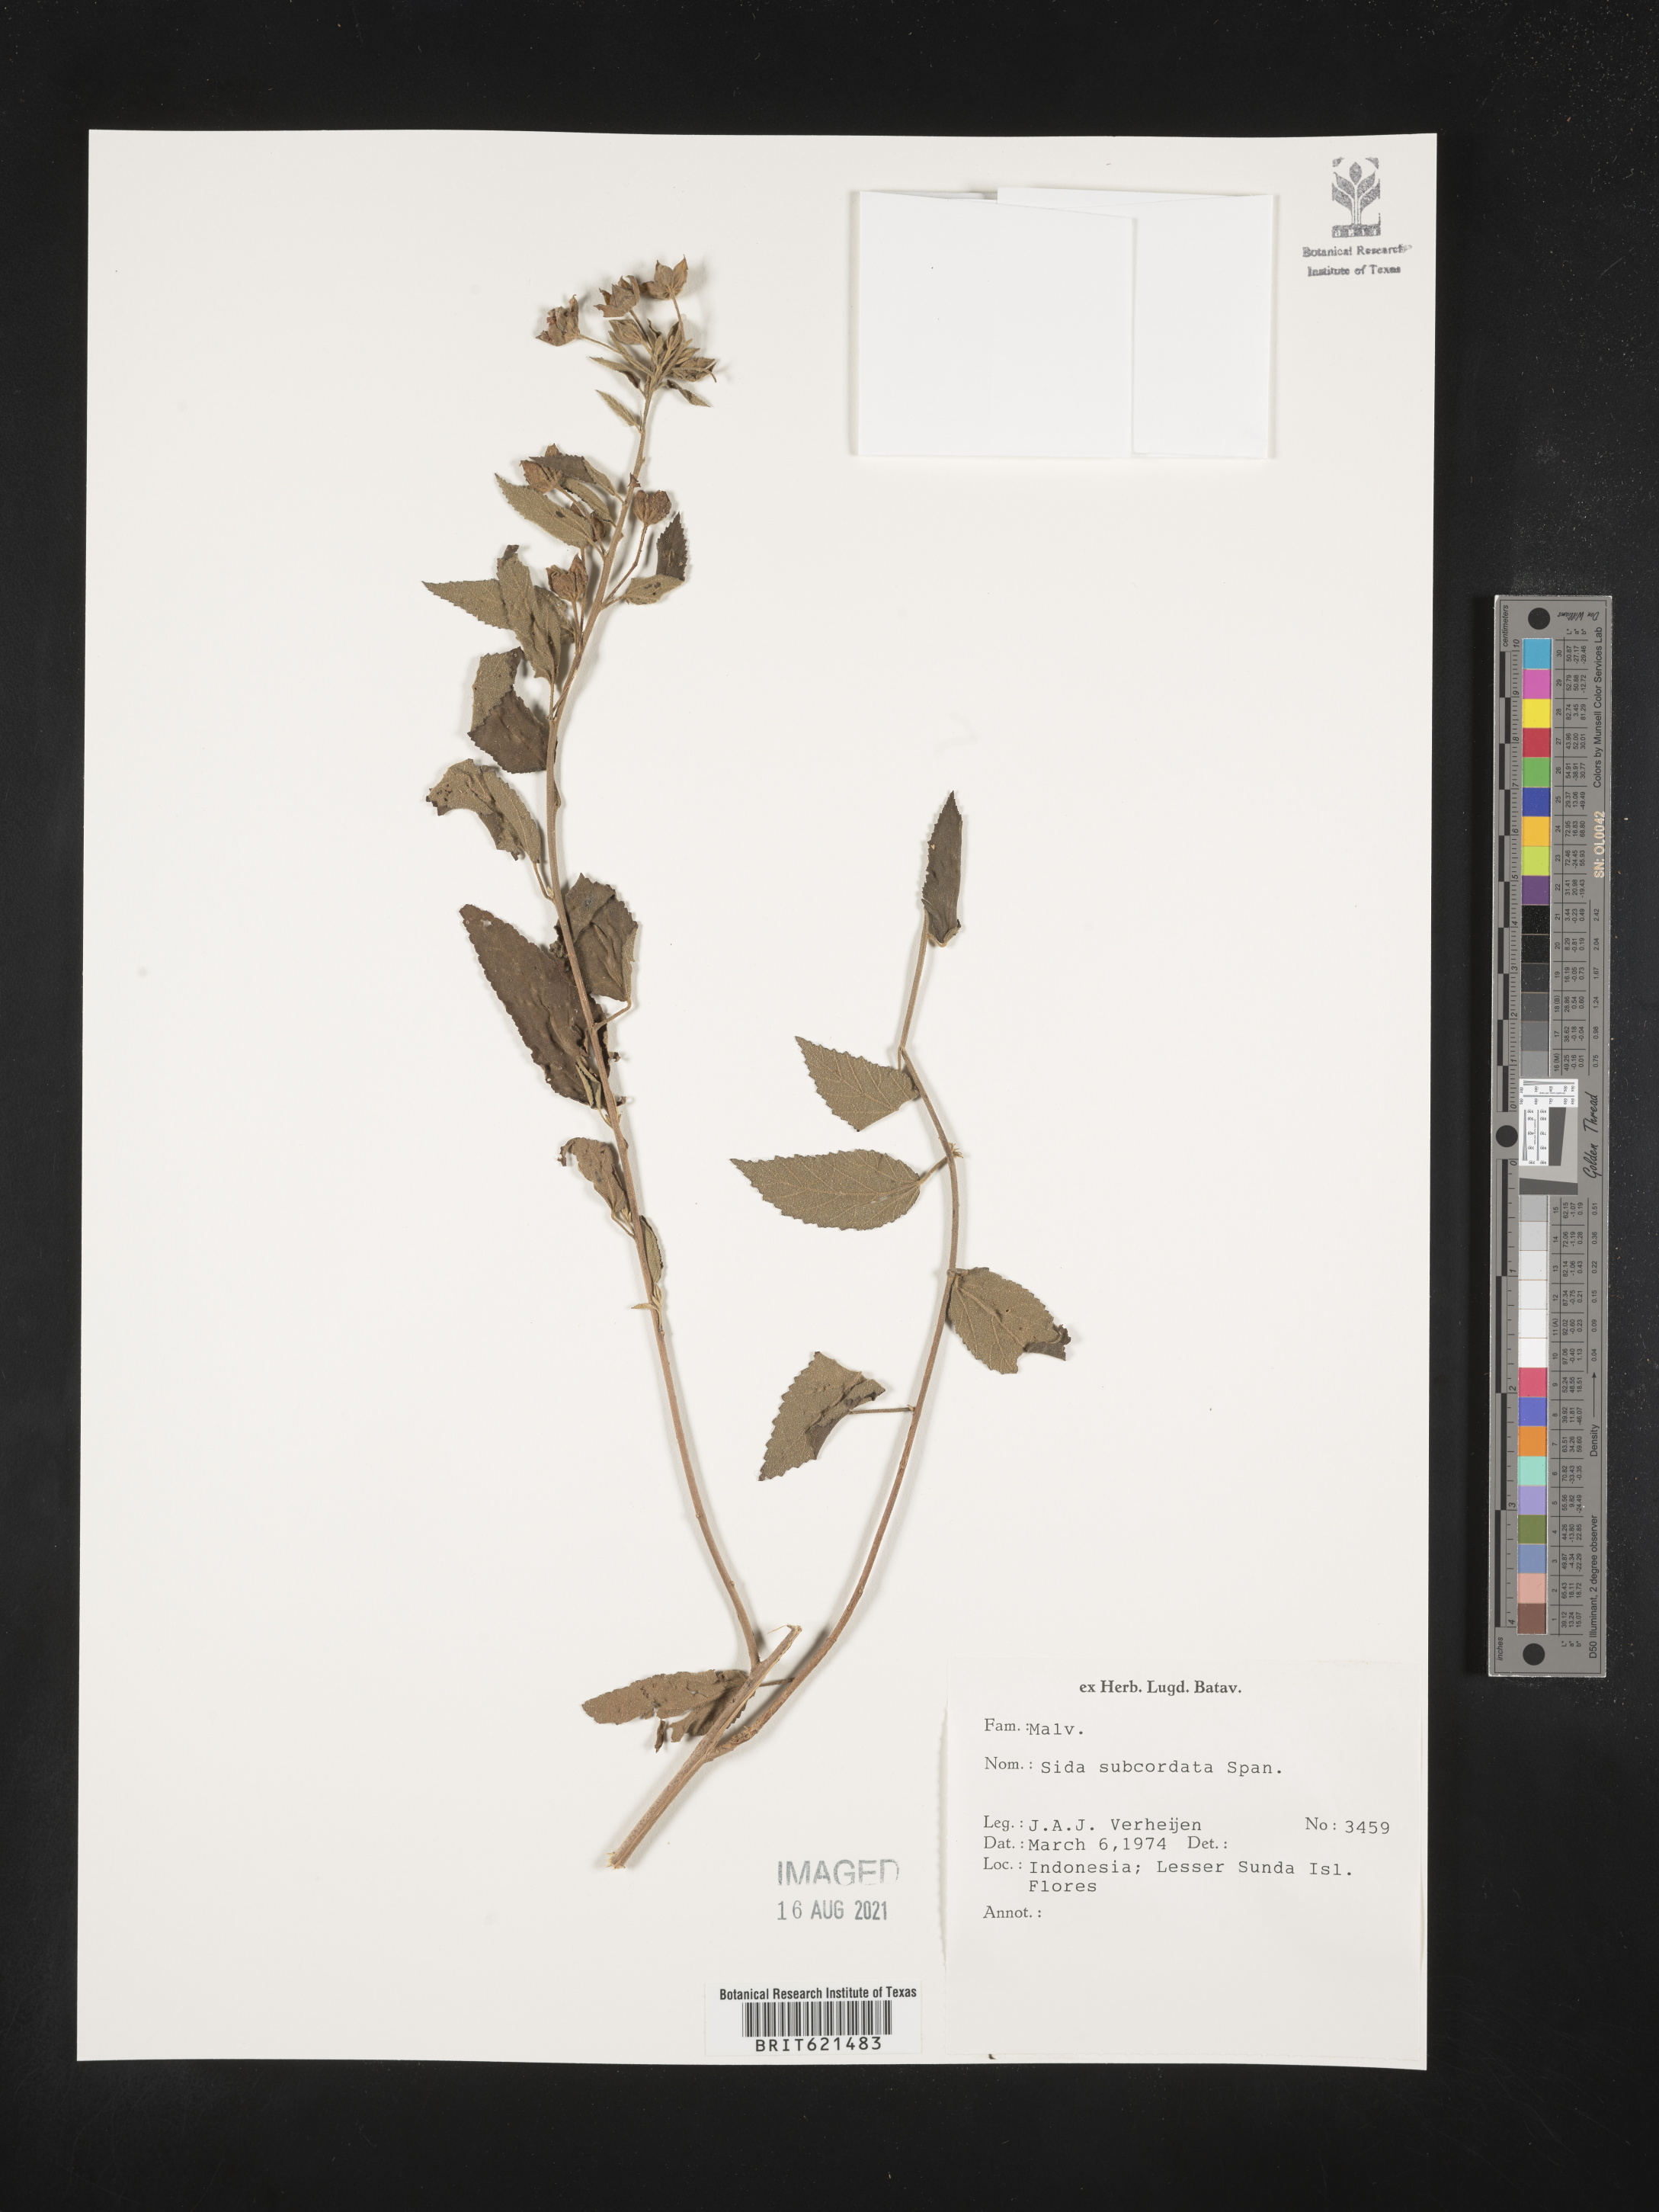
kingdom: Plantae
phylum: Tracheophyta
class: Magnoliopsida
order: Malvales
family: Malvaceae
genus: Sida
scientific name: Sida subcordata
